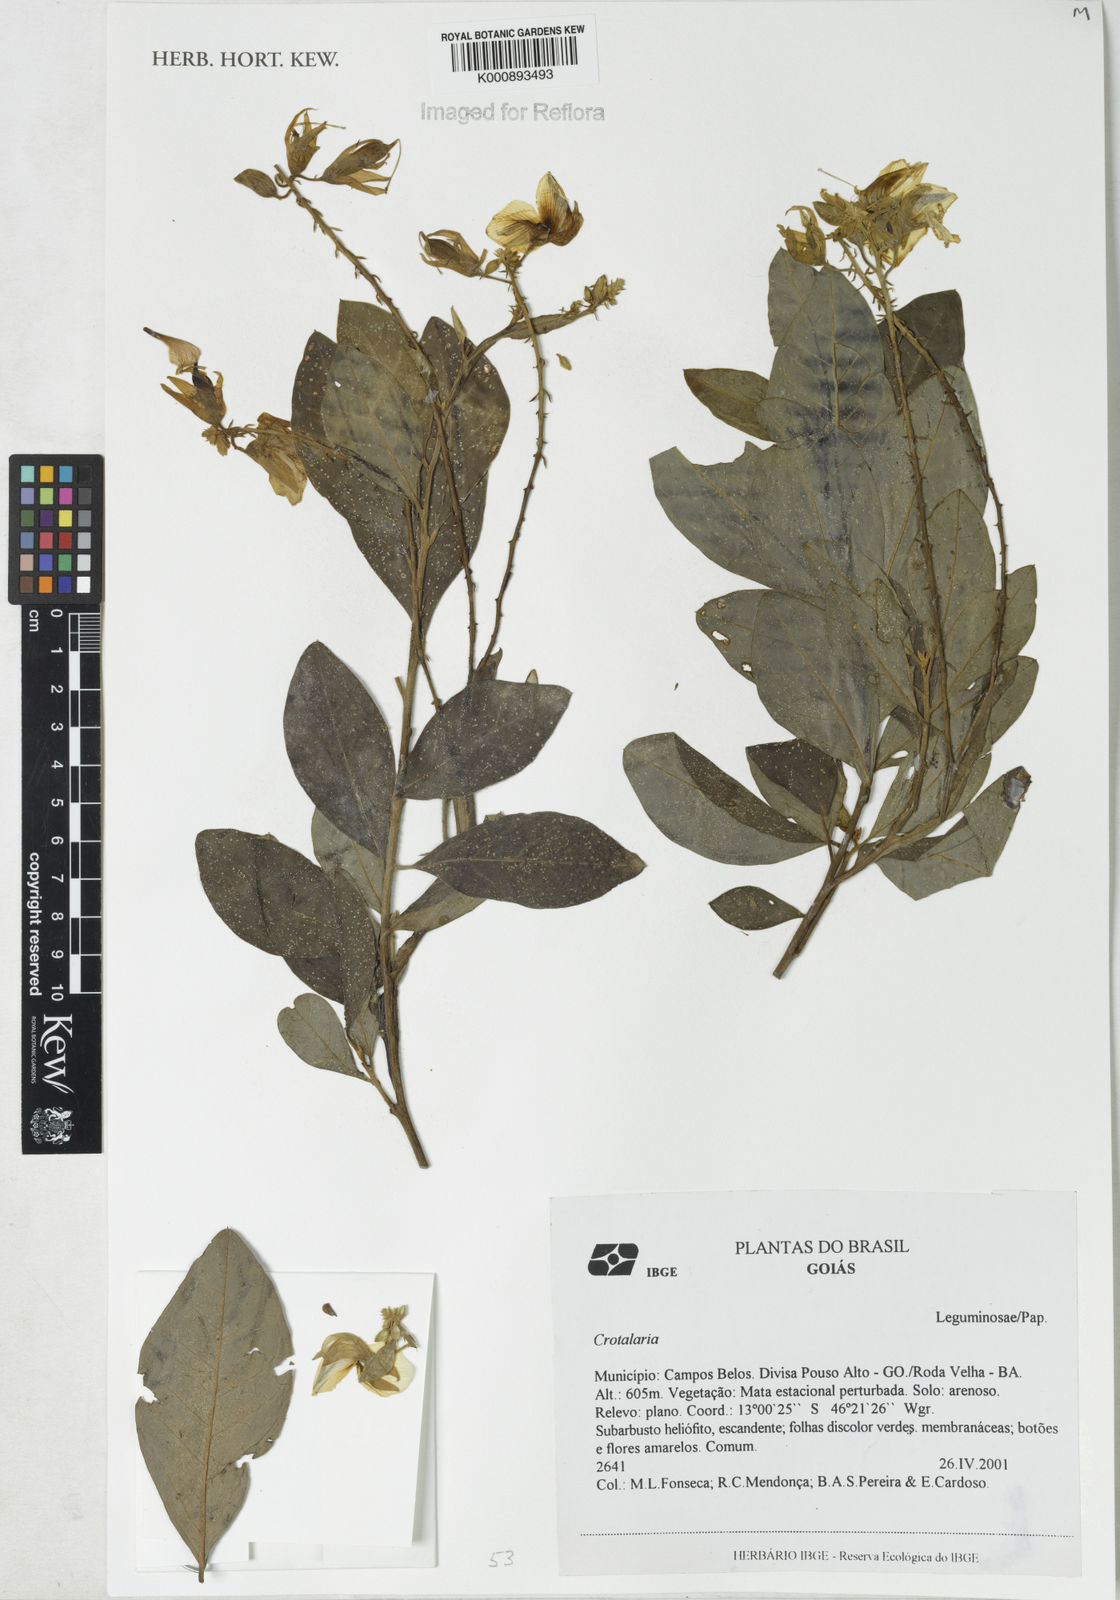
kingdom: Plantae
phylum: Tracheophyta
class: Magnoliopsida
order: Fabales
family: Fabaceae
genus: Crotalaria
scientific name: Crotalaria grandiflora
